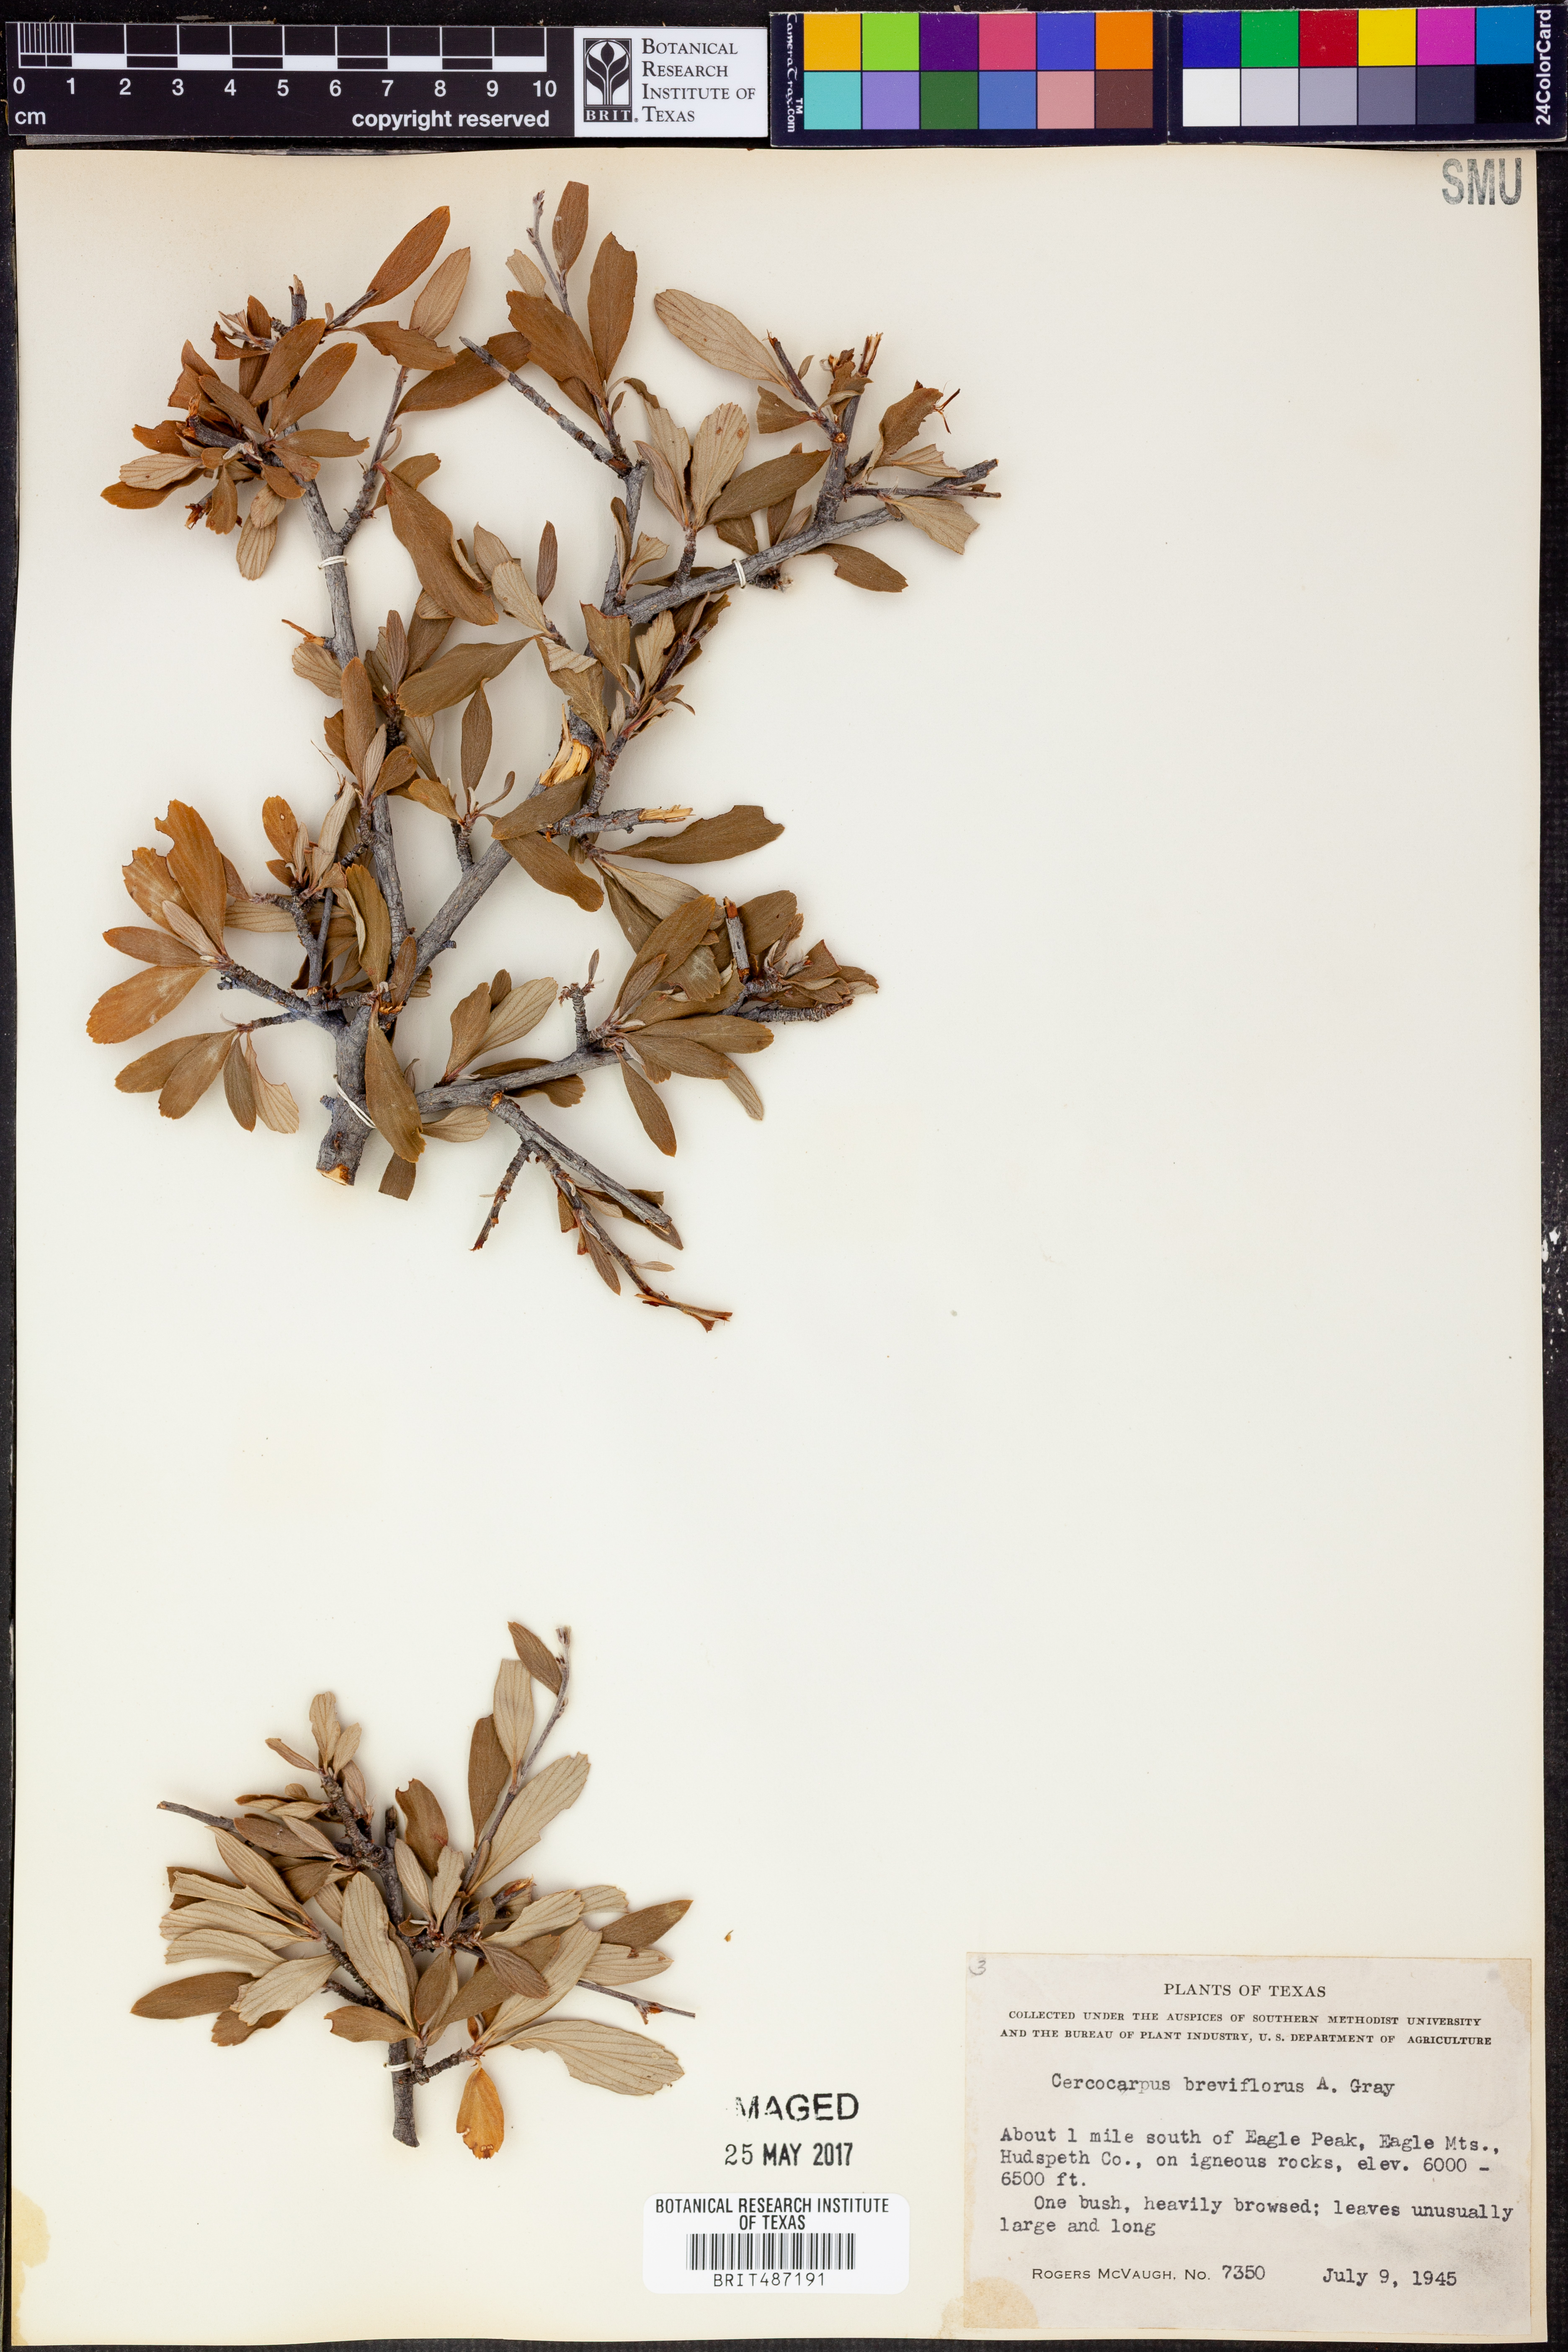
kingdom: Plantae
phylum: Tracheophyta
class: Magnoliopsida
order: Rosales
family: Rosaceae
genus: Cercocarpus
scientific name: Cercocarpus breviflorus
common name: Wright's mountain-mahogany
